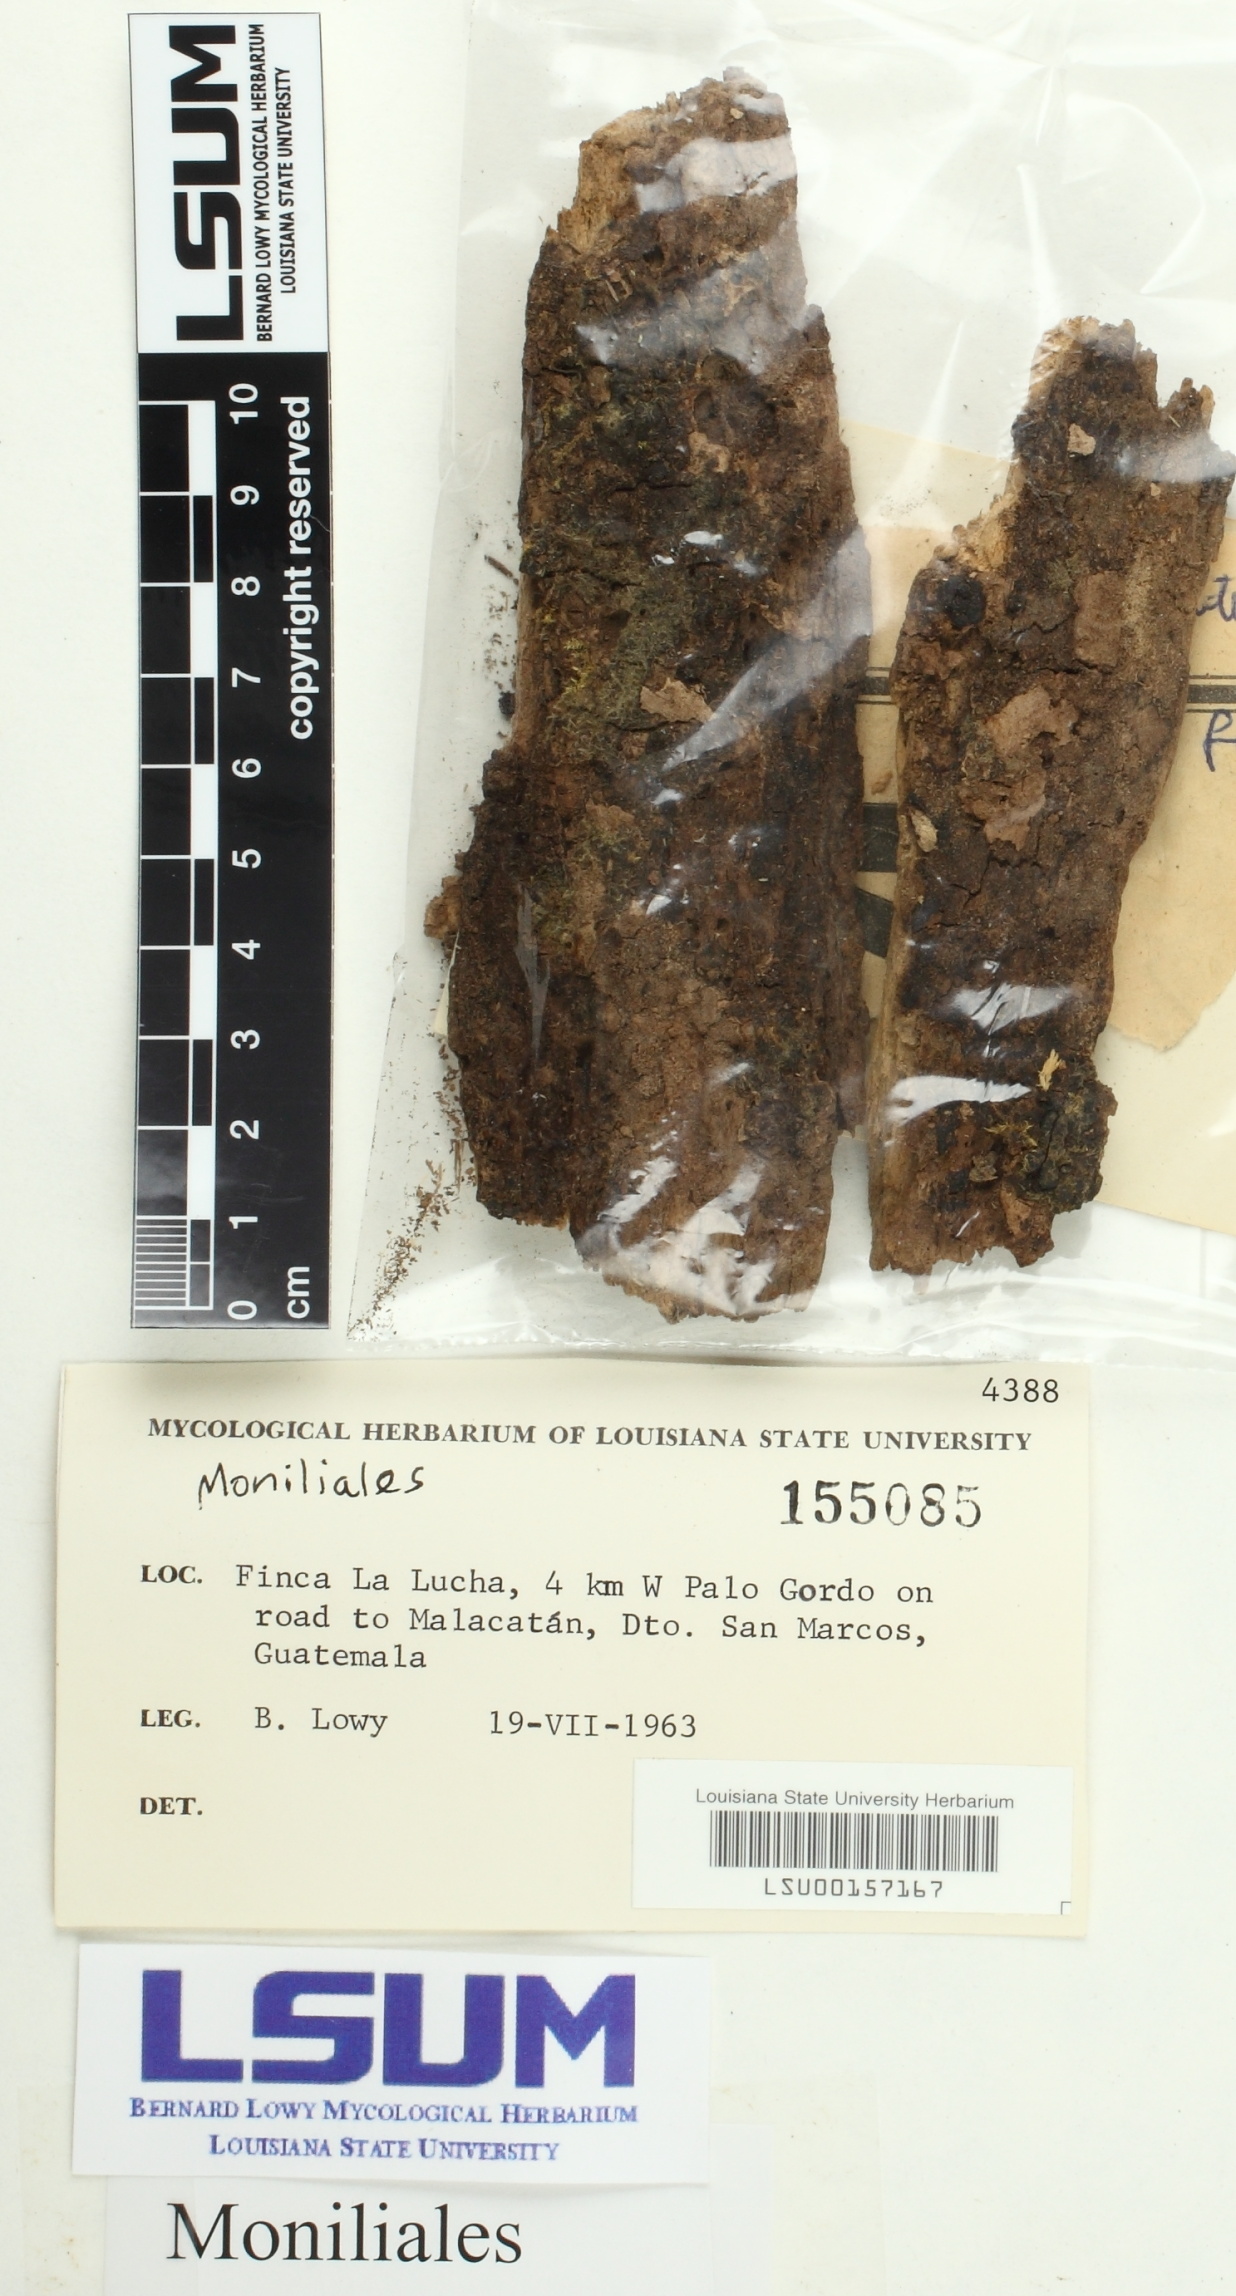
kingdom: Fungi
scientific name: Fungi
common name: Fungi
